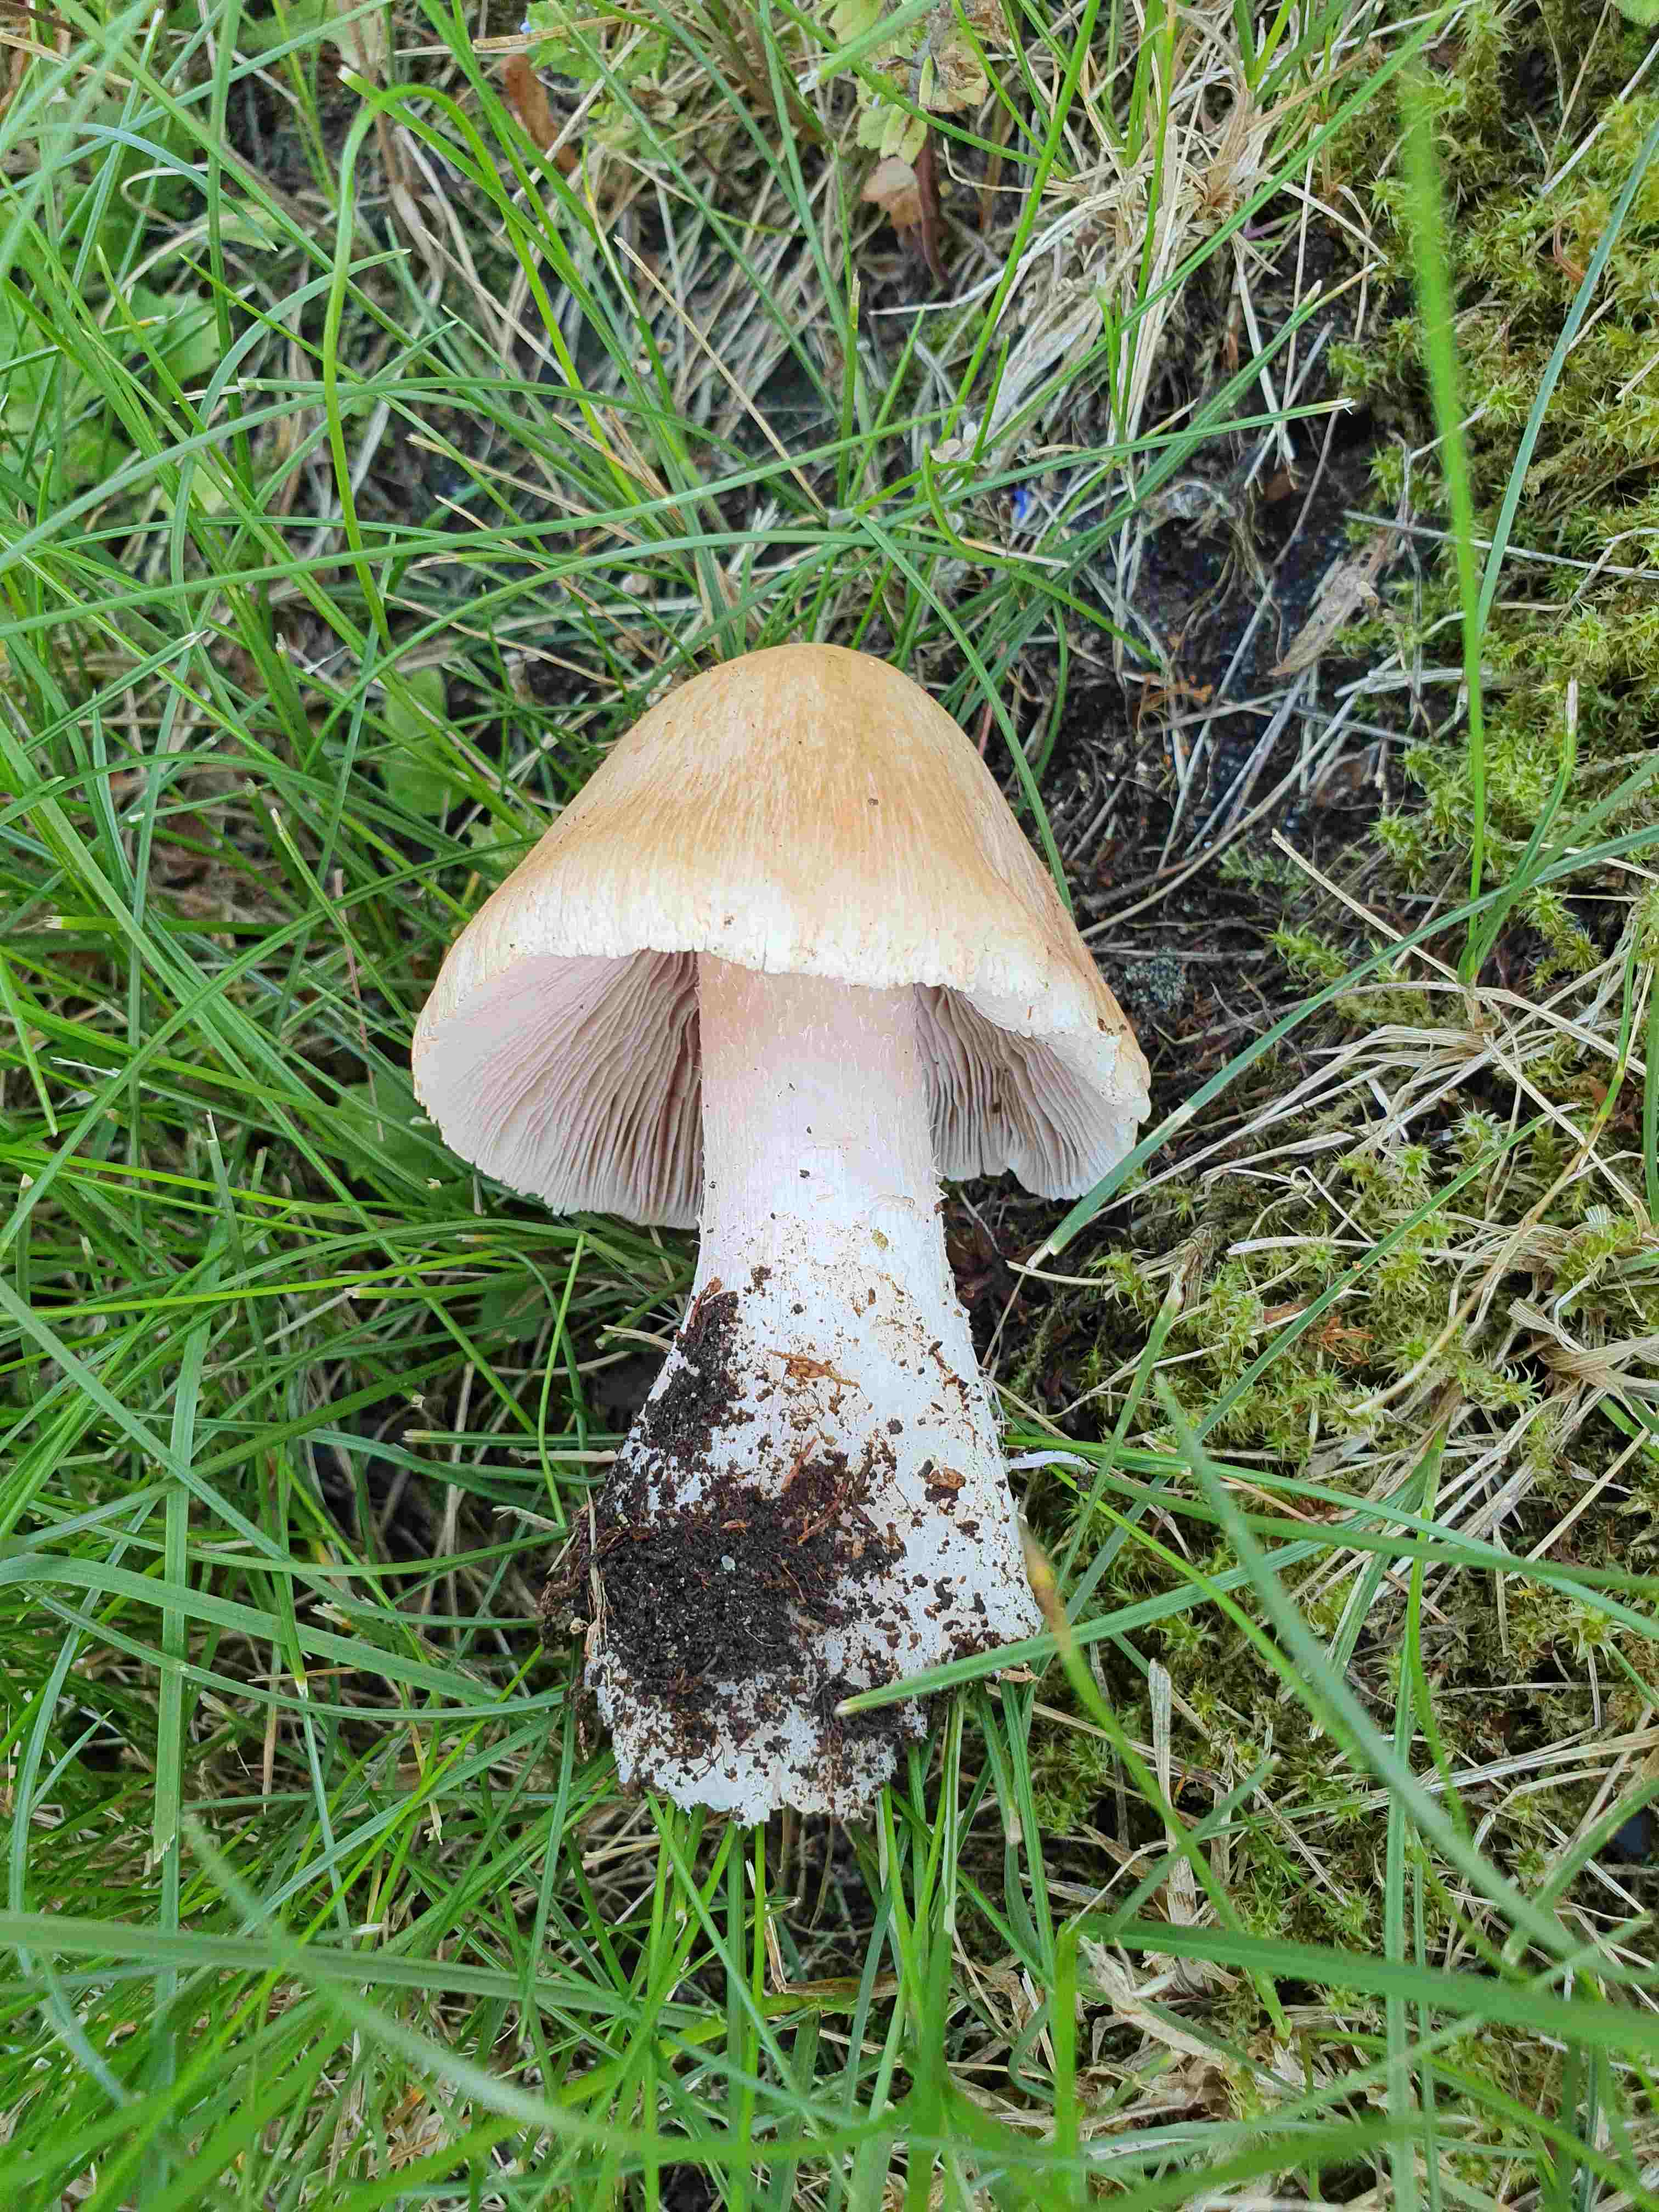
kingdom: Fungi
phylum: Basidiomycota
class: Agaricomycetes
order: Agaricales
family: Inocybaceae
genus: Inosperma
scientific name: Inosperma erubescens
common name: giftig trævlhat
